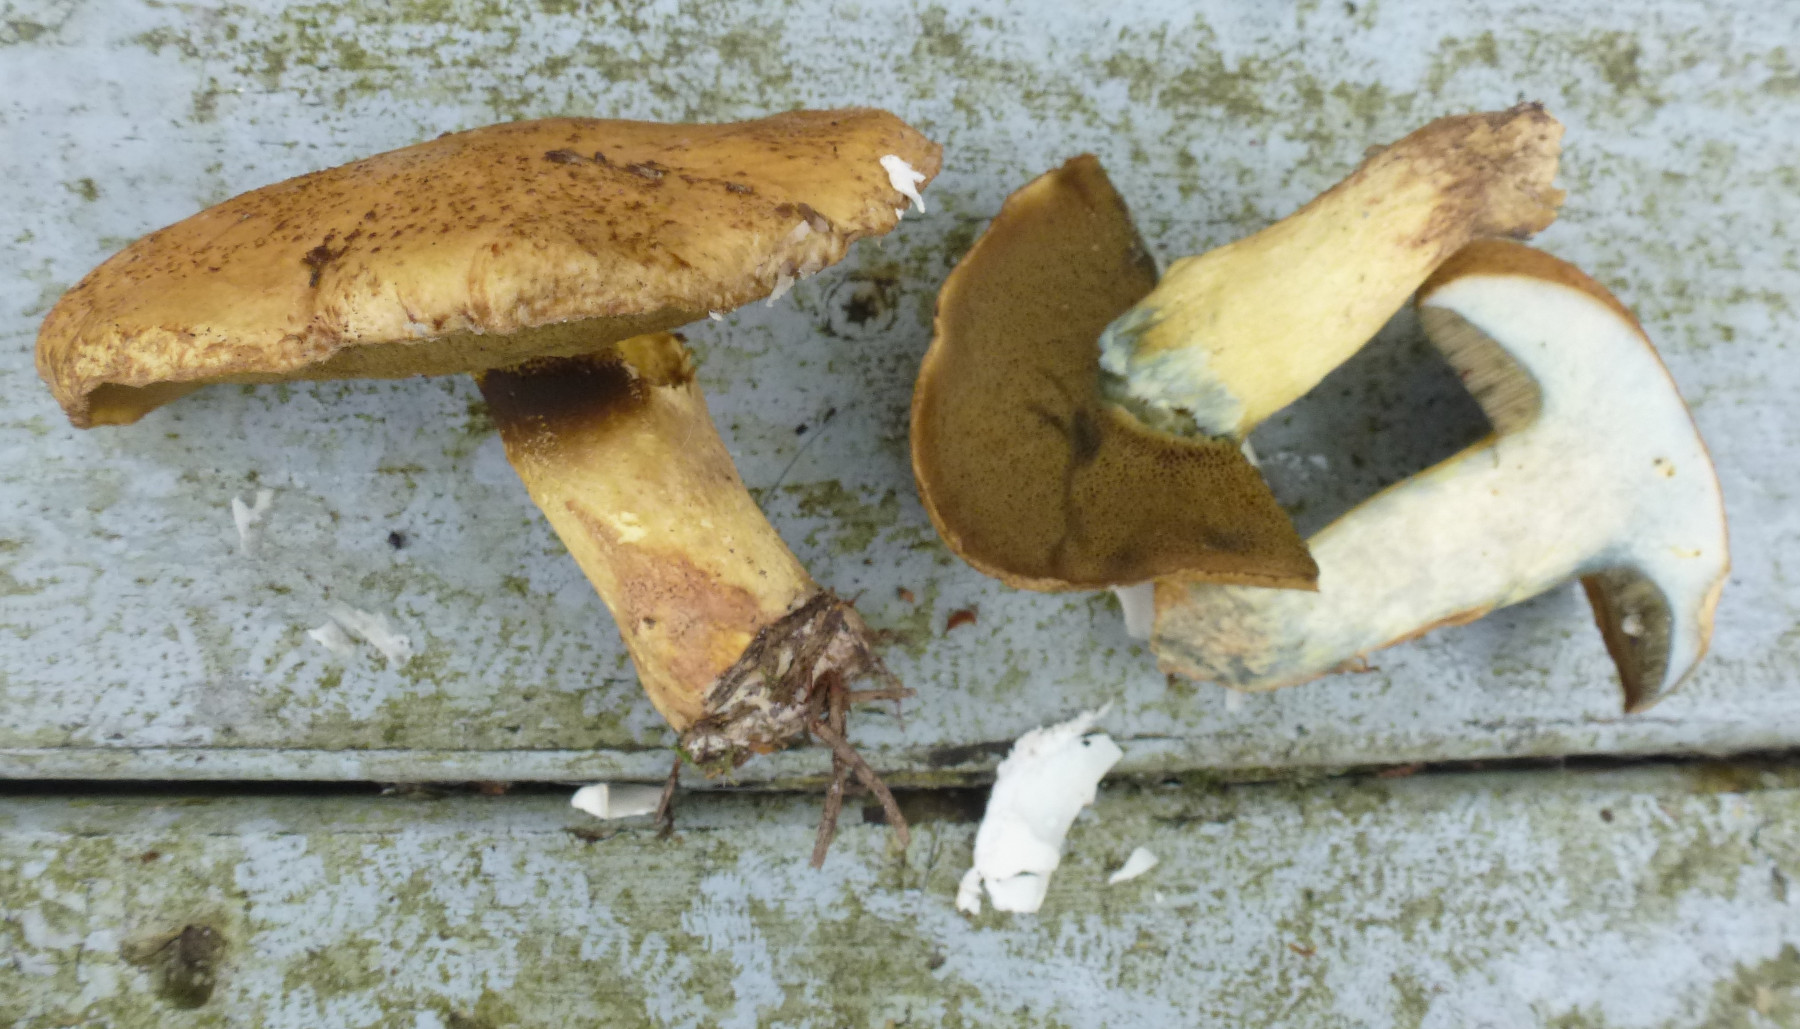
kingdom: Fungi
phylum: Basidiomycota
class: Agaricomycetes
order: Boletales
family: Suillaceae
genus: Suillus
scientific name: Suillus variegatus
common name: broget slimrørhat
